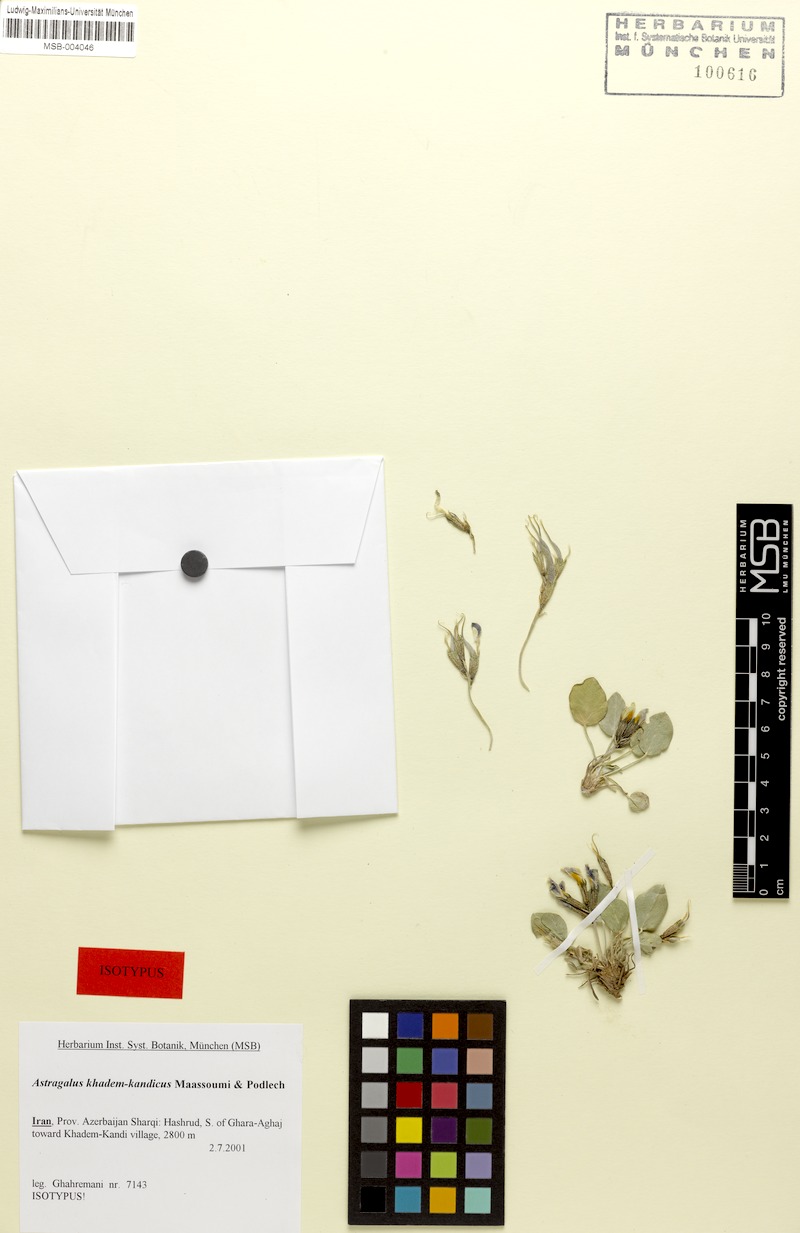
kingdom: Plantae
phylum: Tracheophyta
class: Magnoliopsida
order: Fabales
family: Fabaceae
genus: Astragalus
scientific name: Astragalus khadem-kandicus
